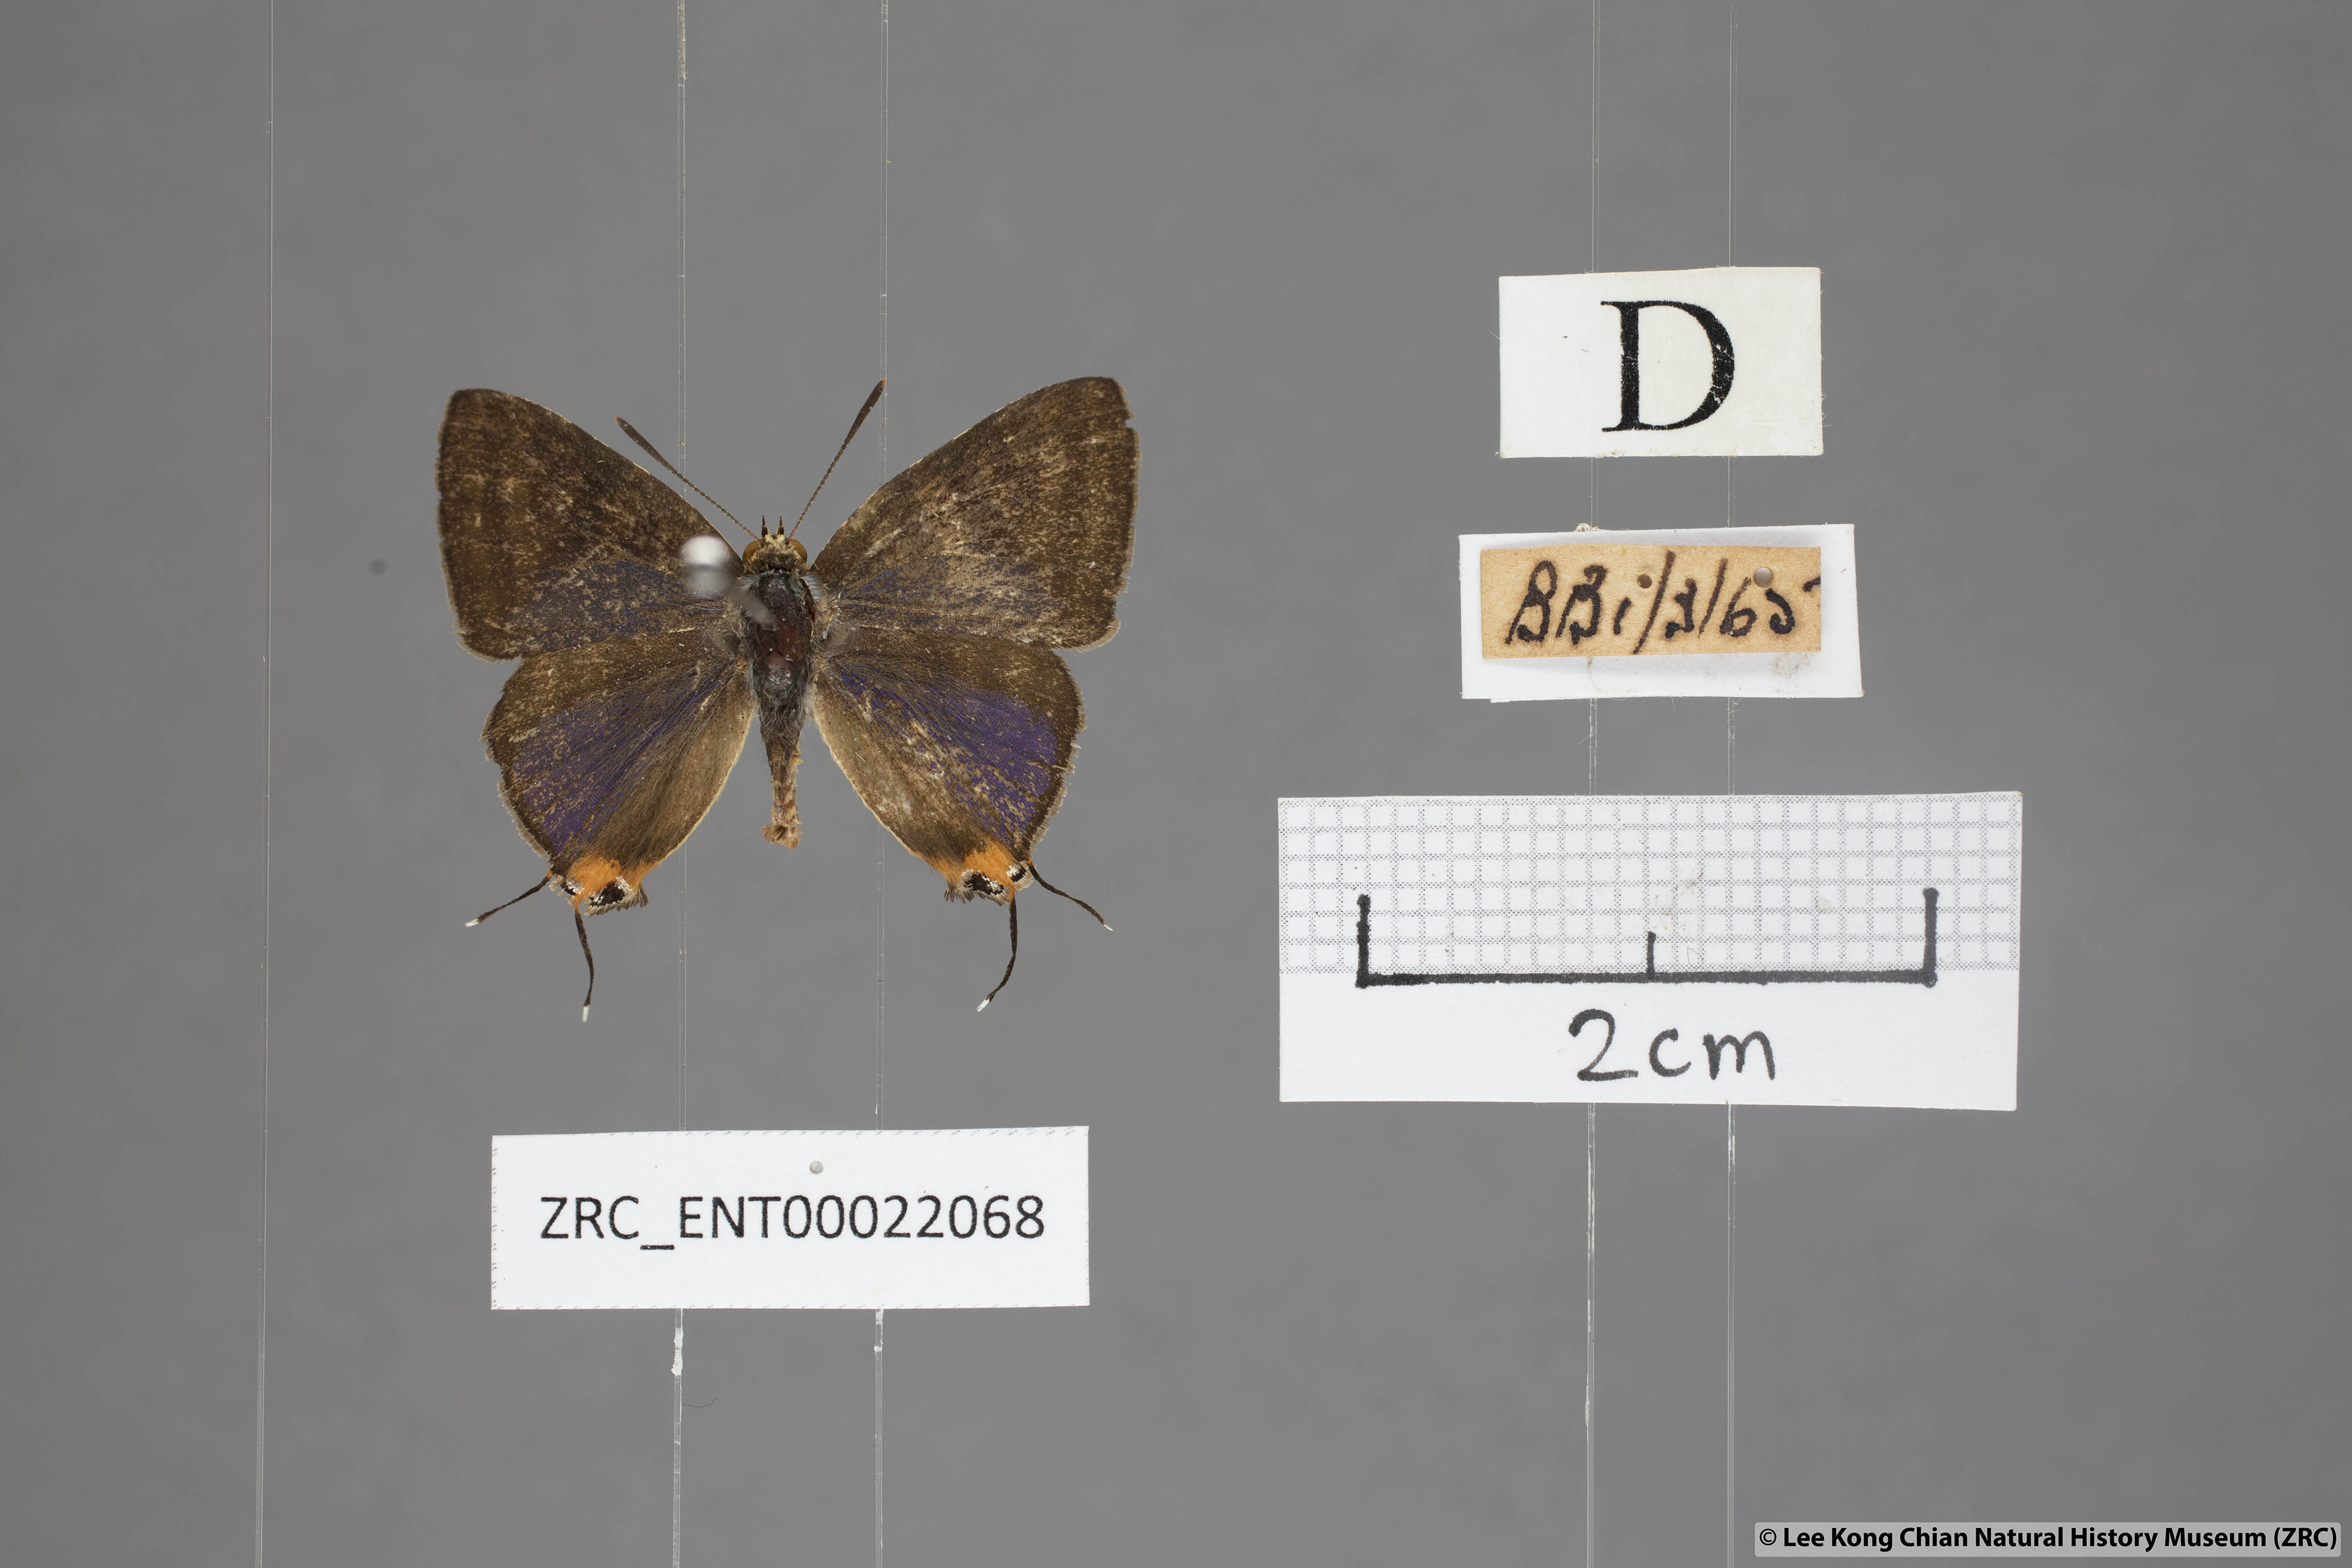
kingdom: Animalia
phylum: Arthropoda
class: Insecta
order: Lepidoptera
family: Lycaenidae
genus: Spindasis
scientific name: Spindasis lohita
